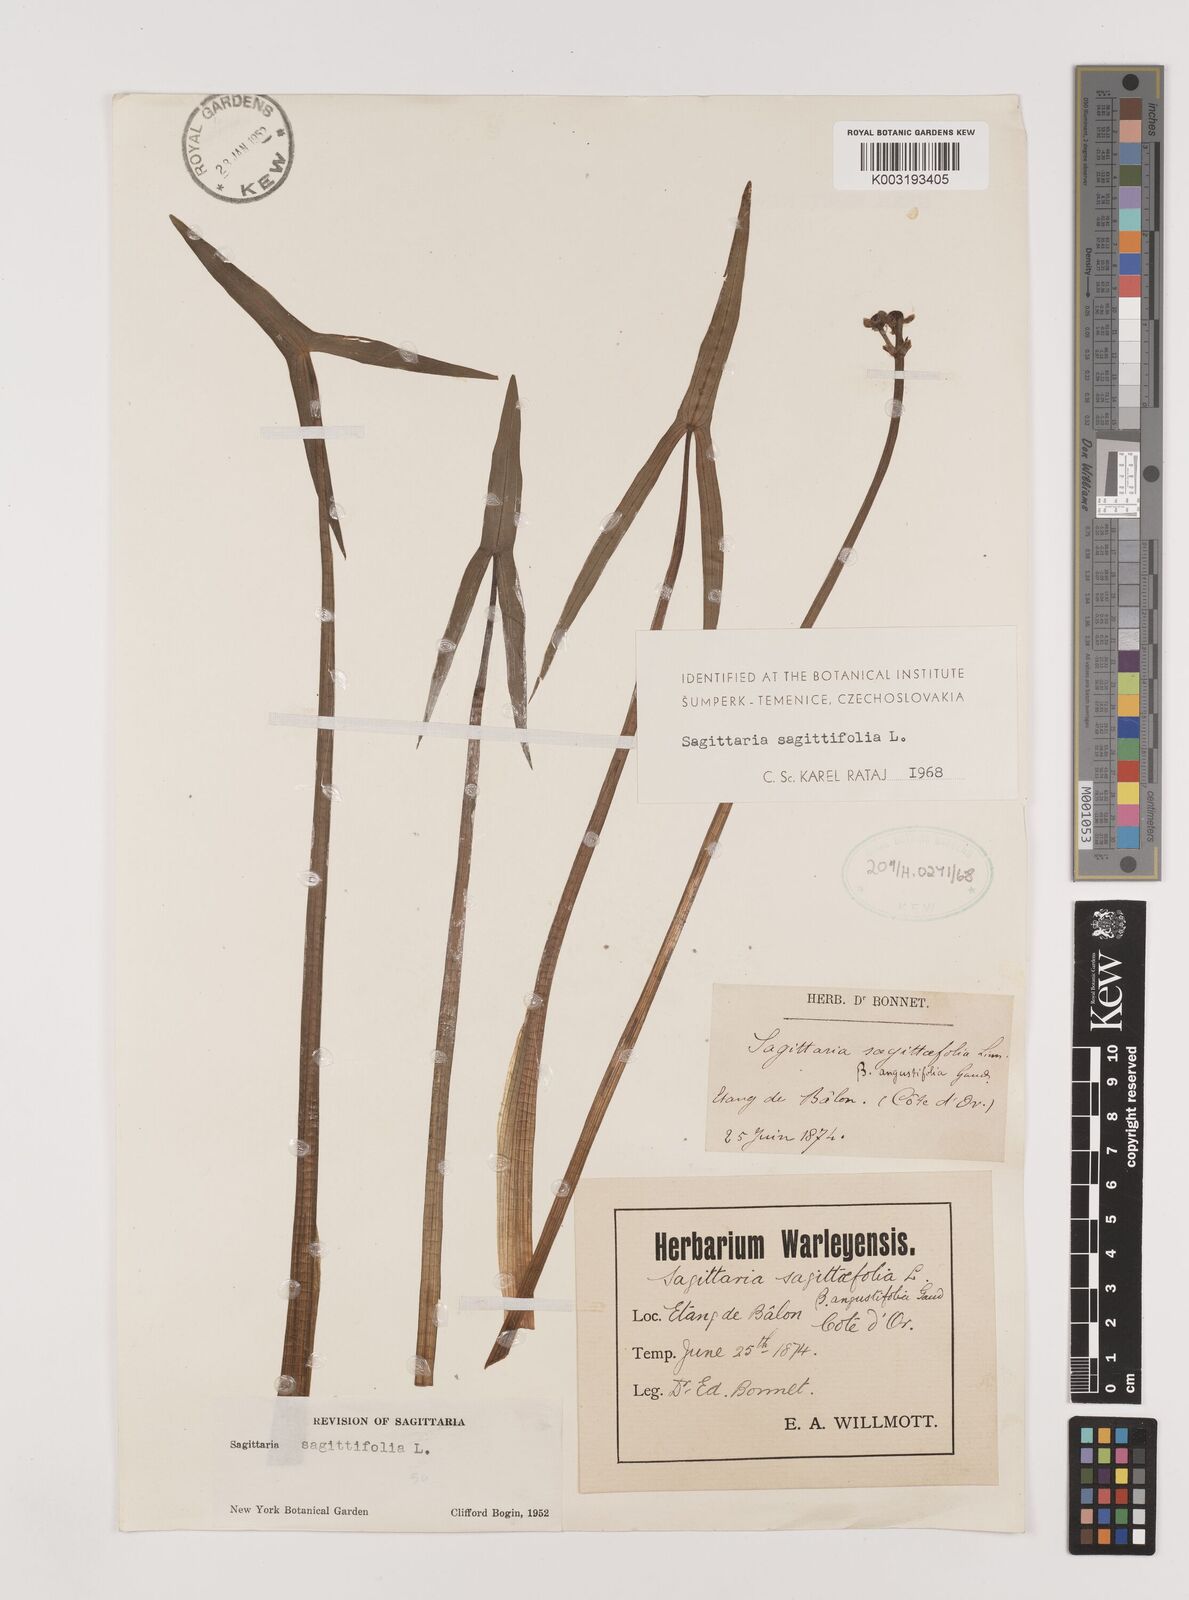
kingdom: Plantae
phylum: Tracheophyta
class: Liliopsida
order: Alismatales
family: Alismataceae
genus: Sagittaria
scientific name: Sagittaria sagittifolia
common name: Arrowhead
